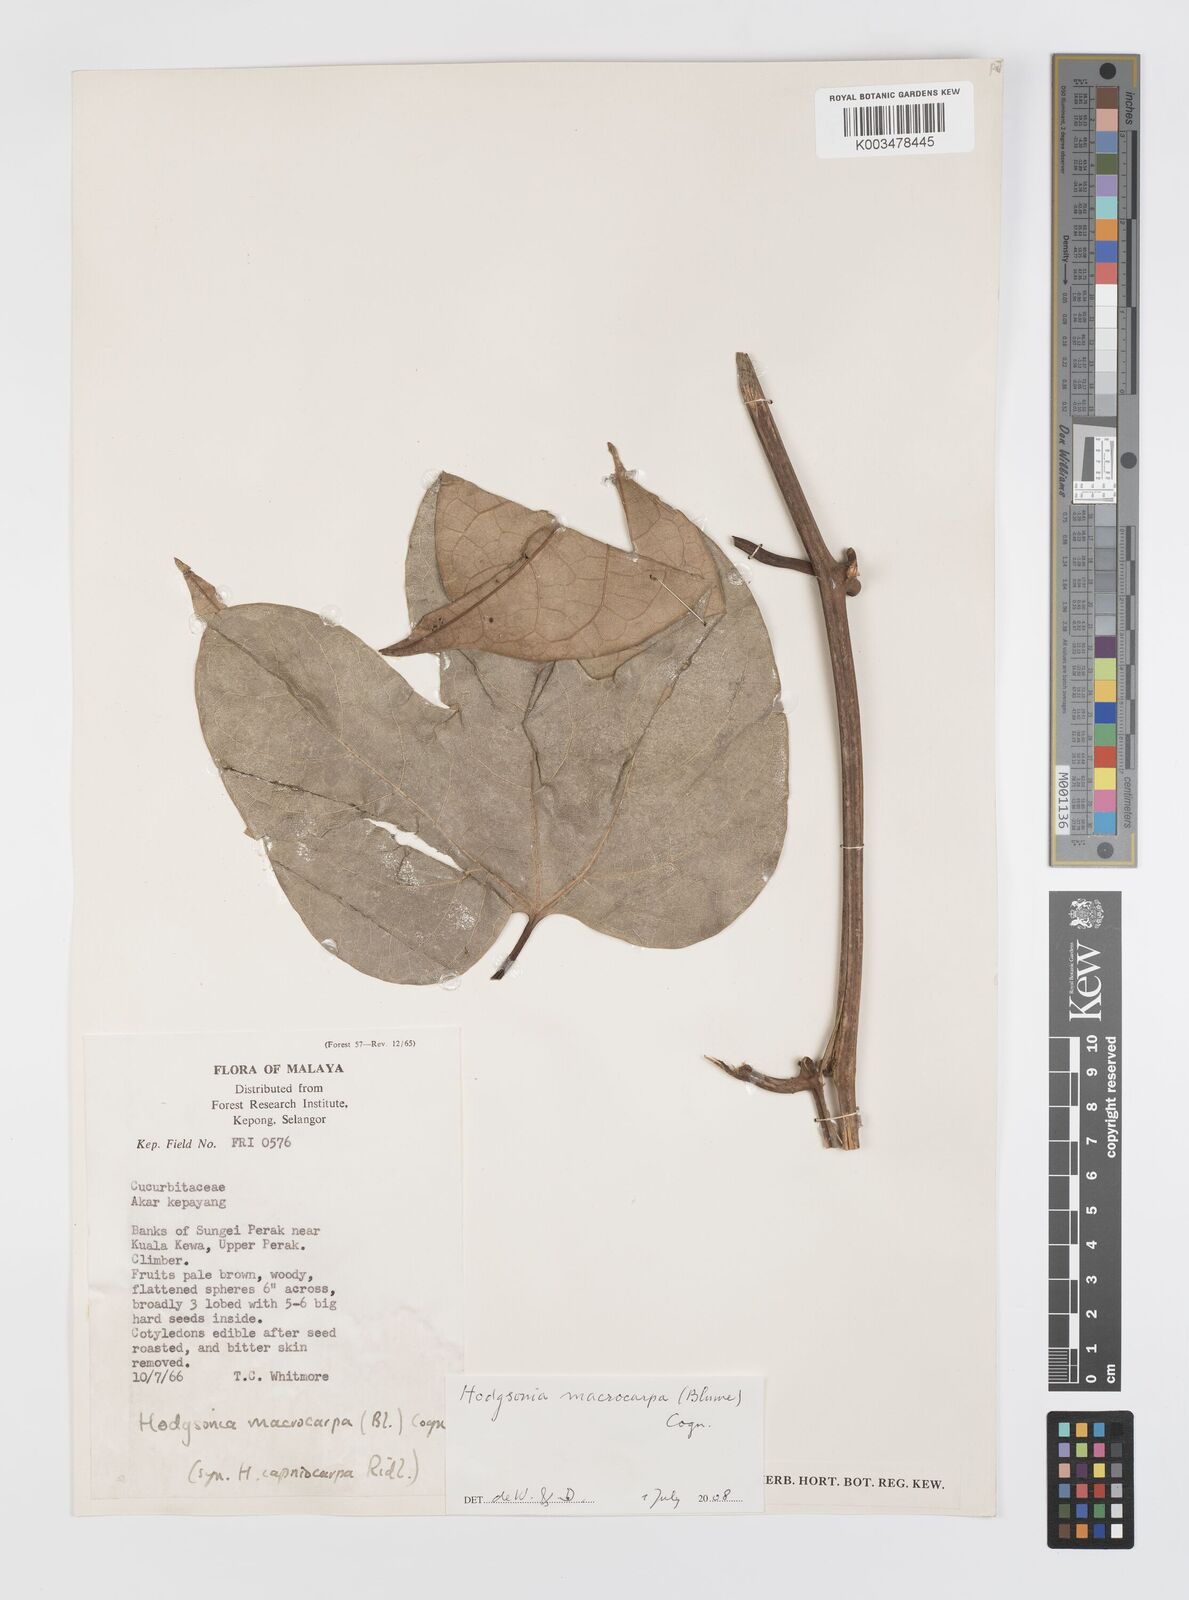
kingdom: Plantae
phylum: Tracheophyta
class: Magnoliopsida
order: Cucurbitales
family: Cucurbitaceae
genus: Hodgsonia
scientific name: Hodgsonia macrocarpa
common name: Chinese lardfruit
